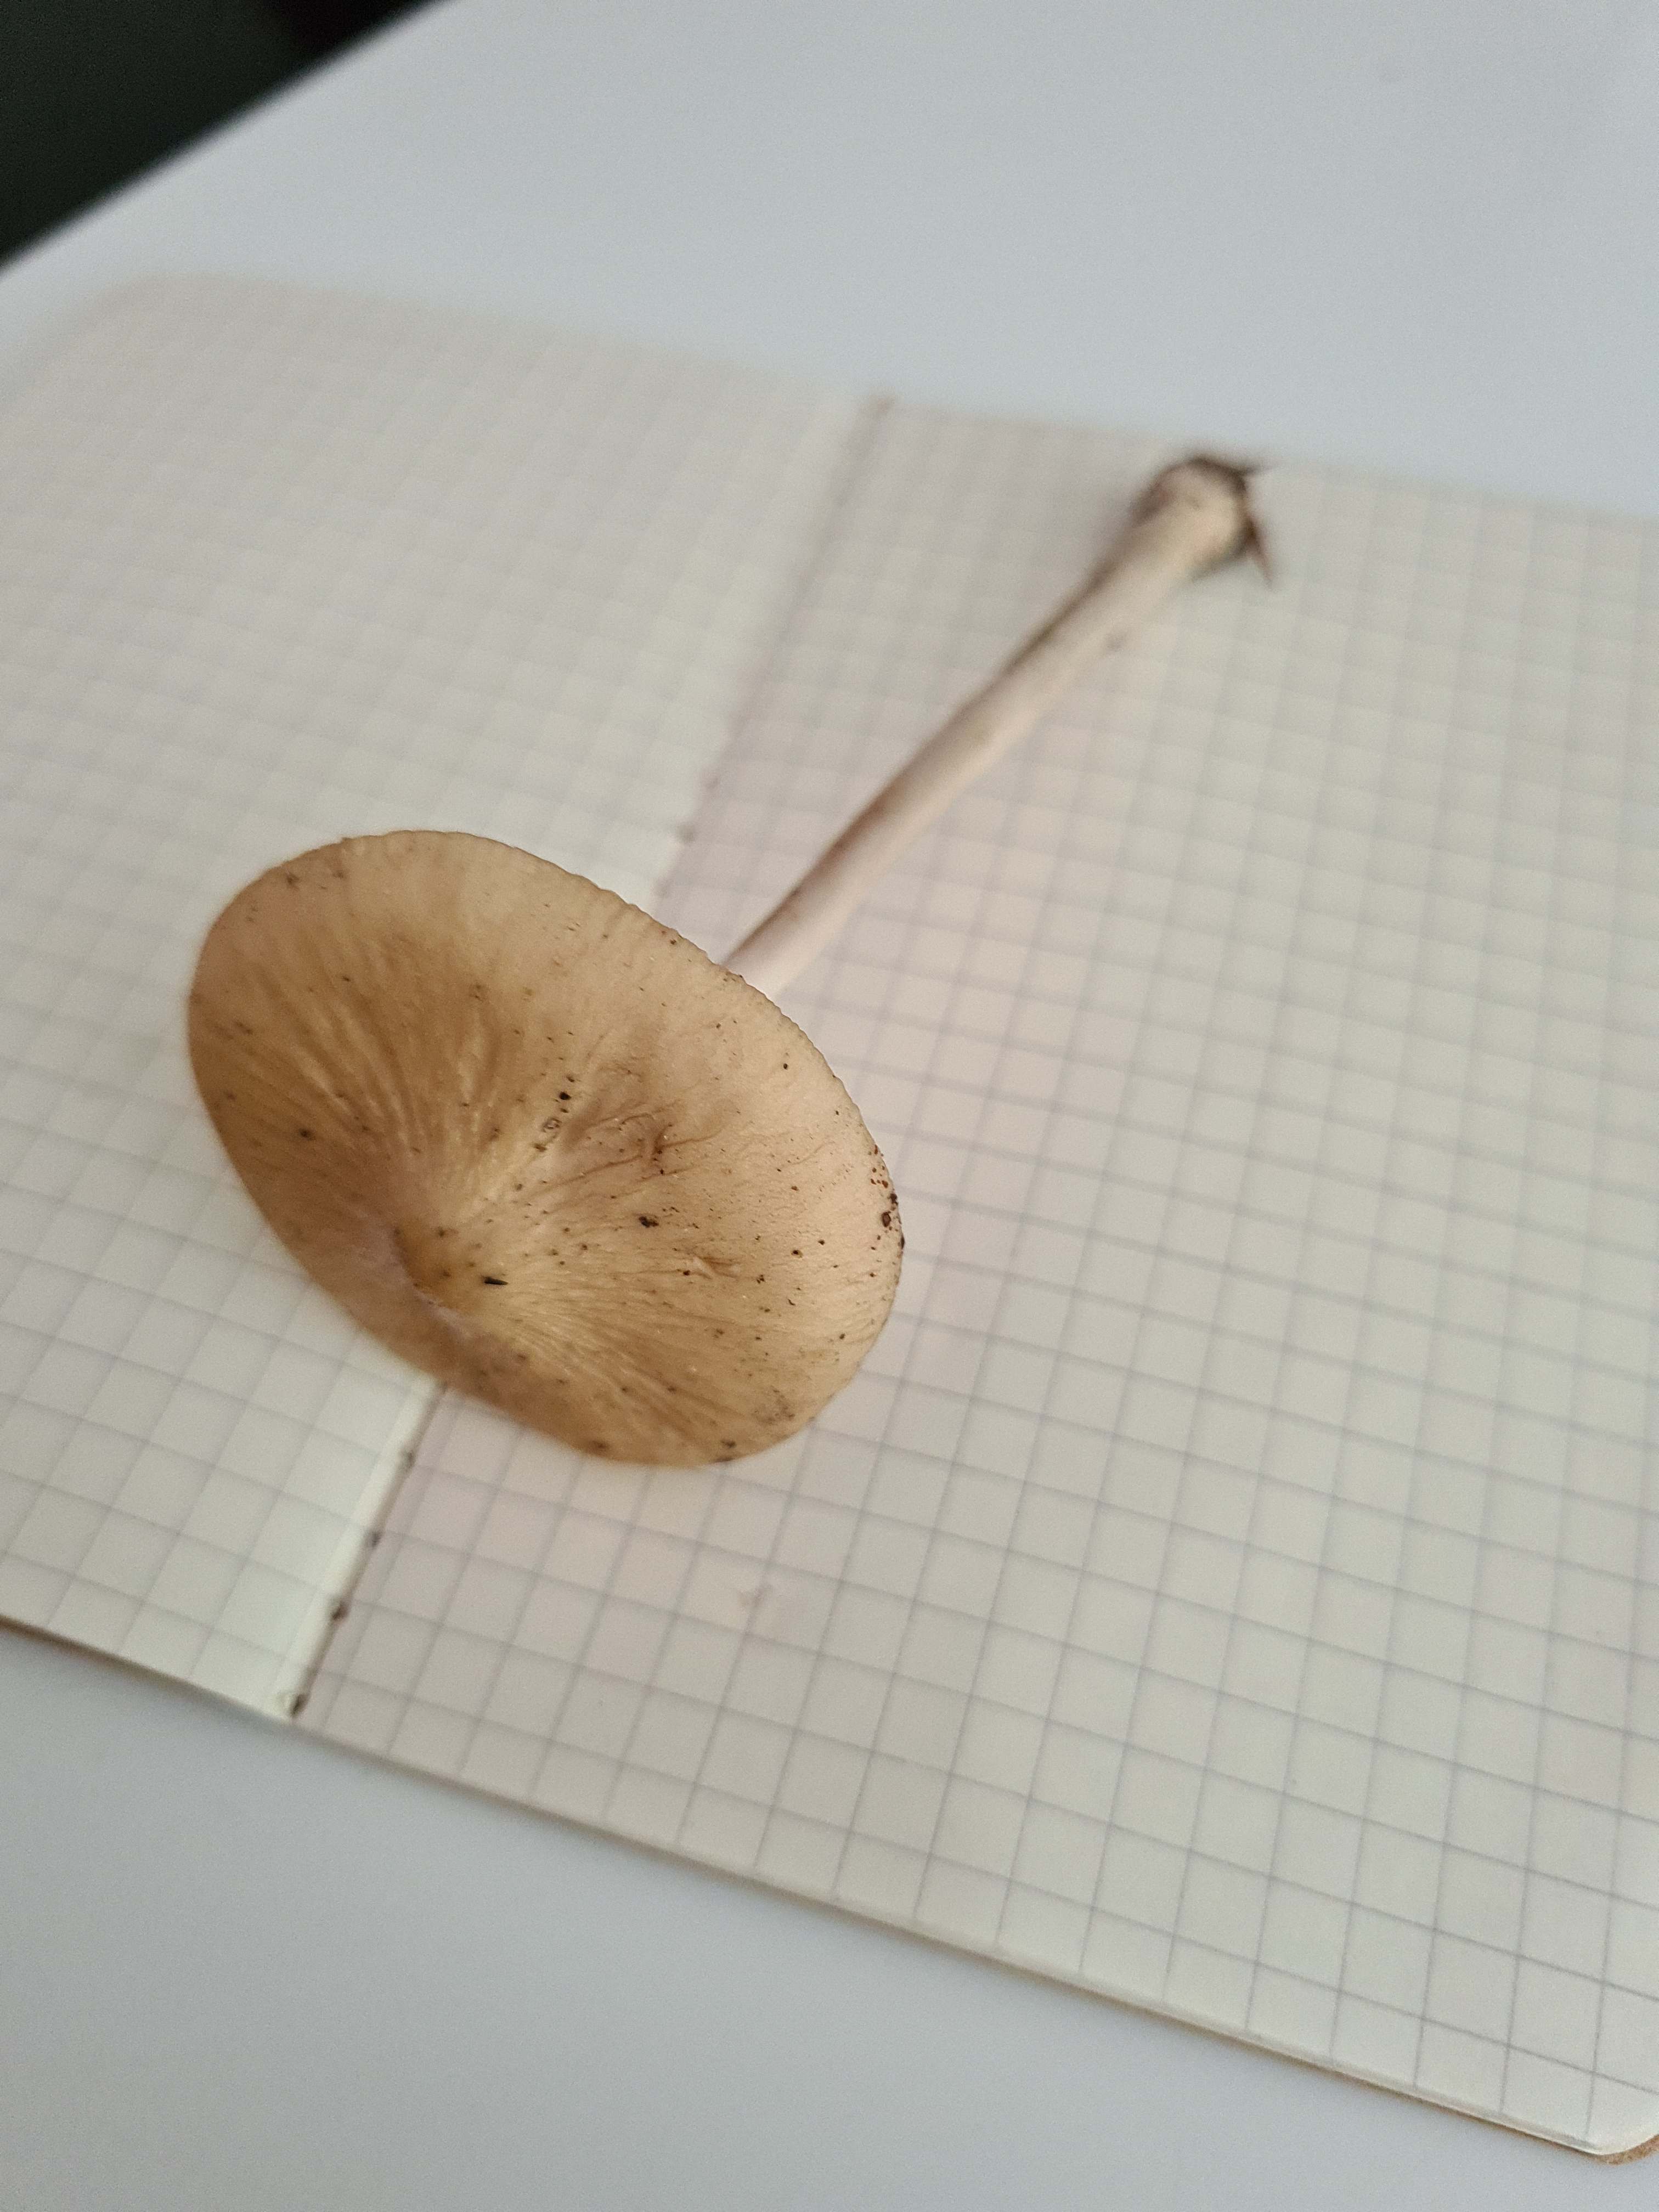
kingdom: Fungi
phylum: Basidiomycota
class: Agaricomycetes
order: Agaricales
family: Physalacriaceae
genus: Hymenopellis
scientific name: Hymenopellis radicata
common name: almindelig pælerodshat
